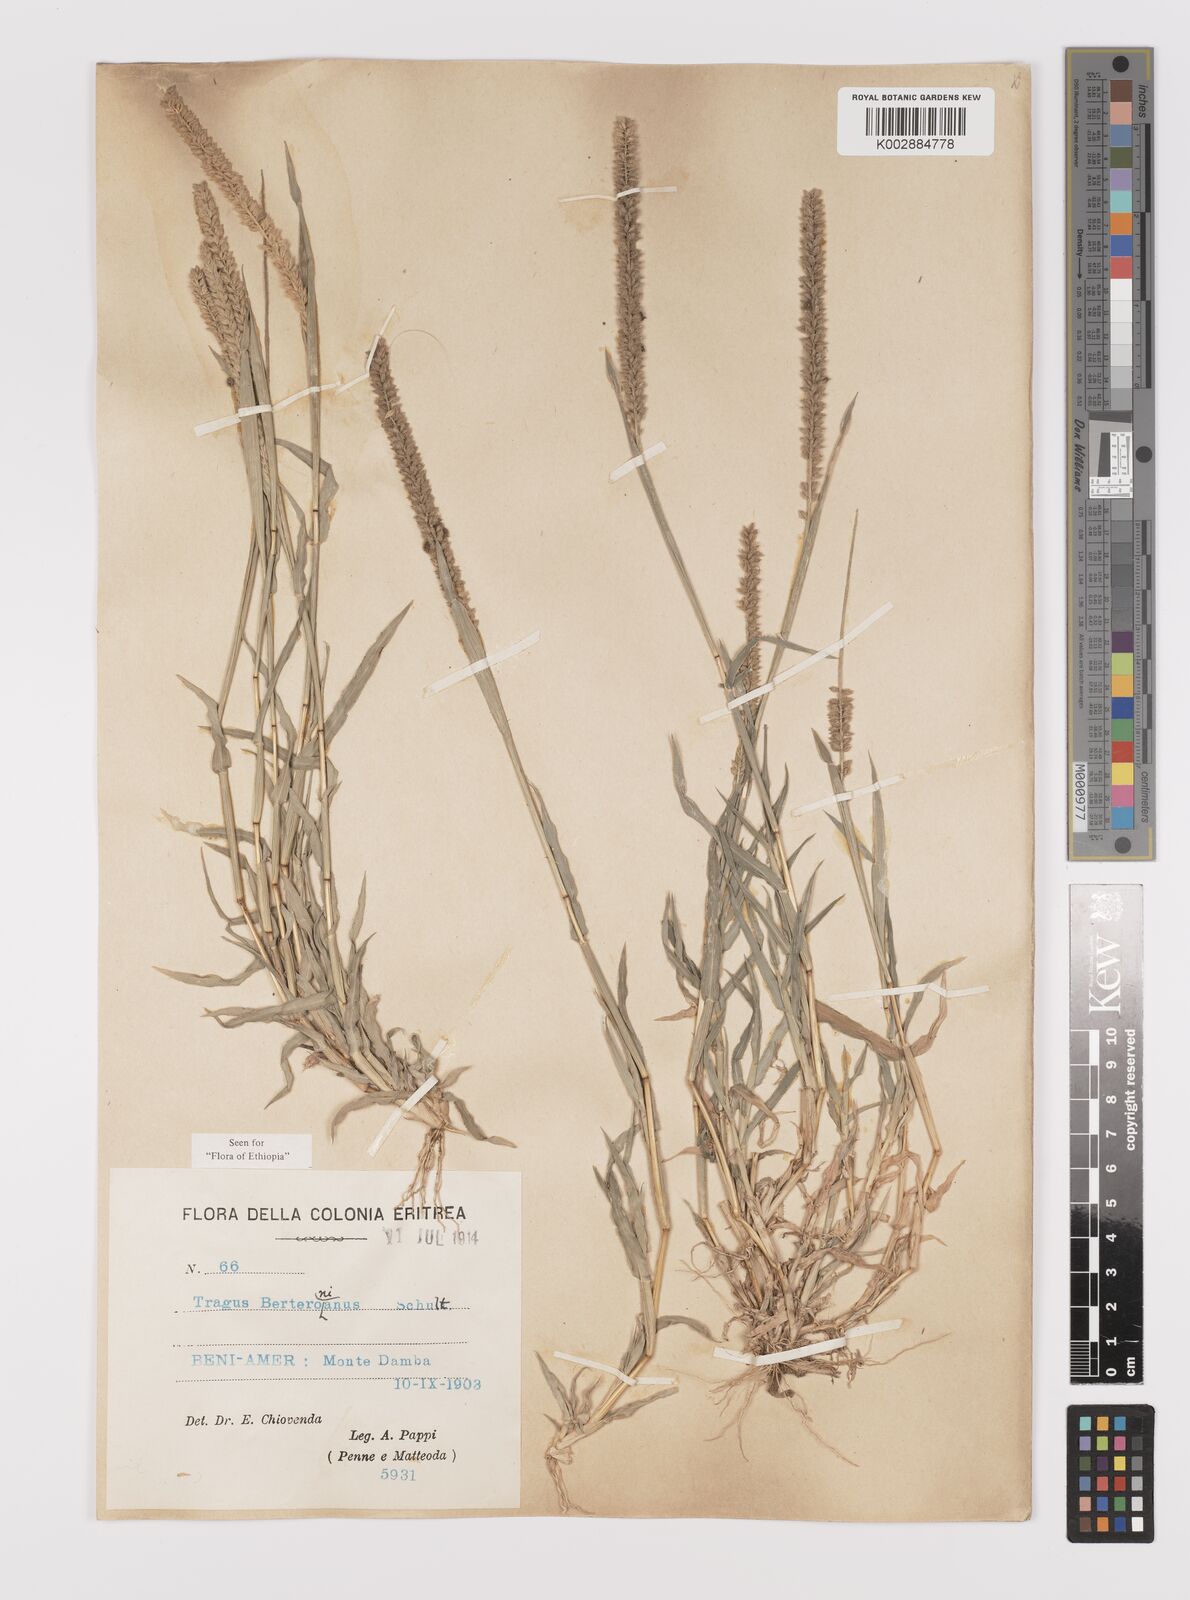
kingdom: Plantae
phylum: Tracheophyta
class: Liliopsida
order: Poales
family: Poaceae
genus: Tragus
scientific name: Tragus berteronianus
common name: African bur-grass
